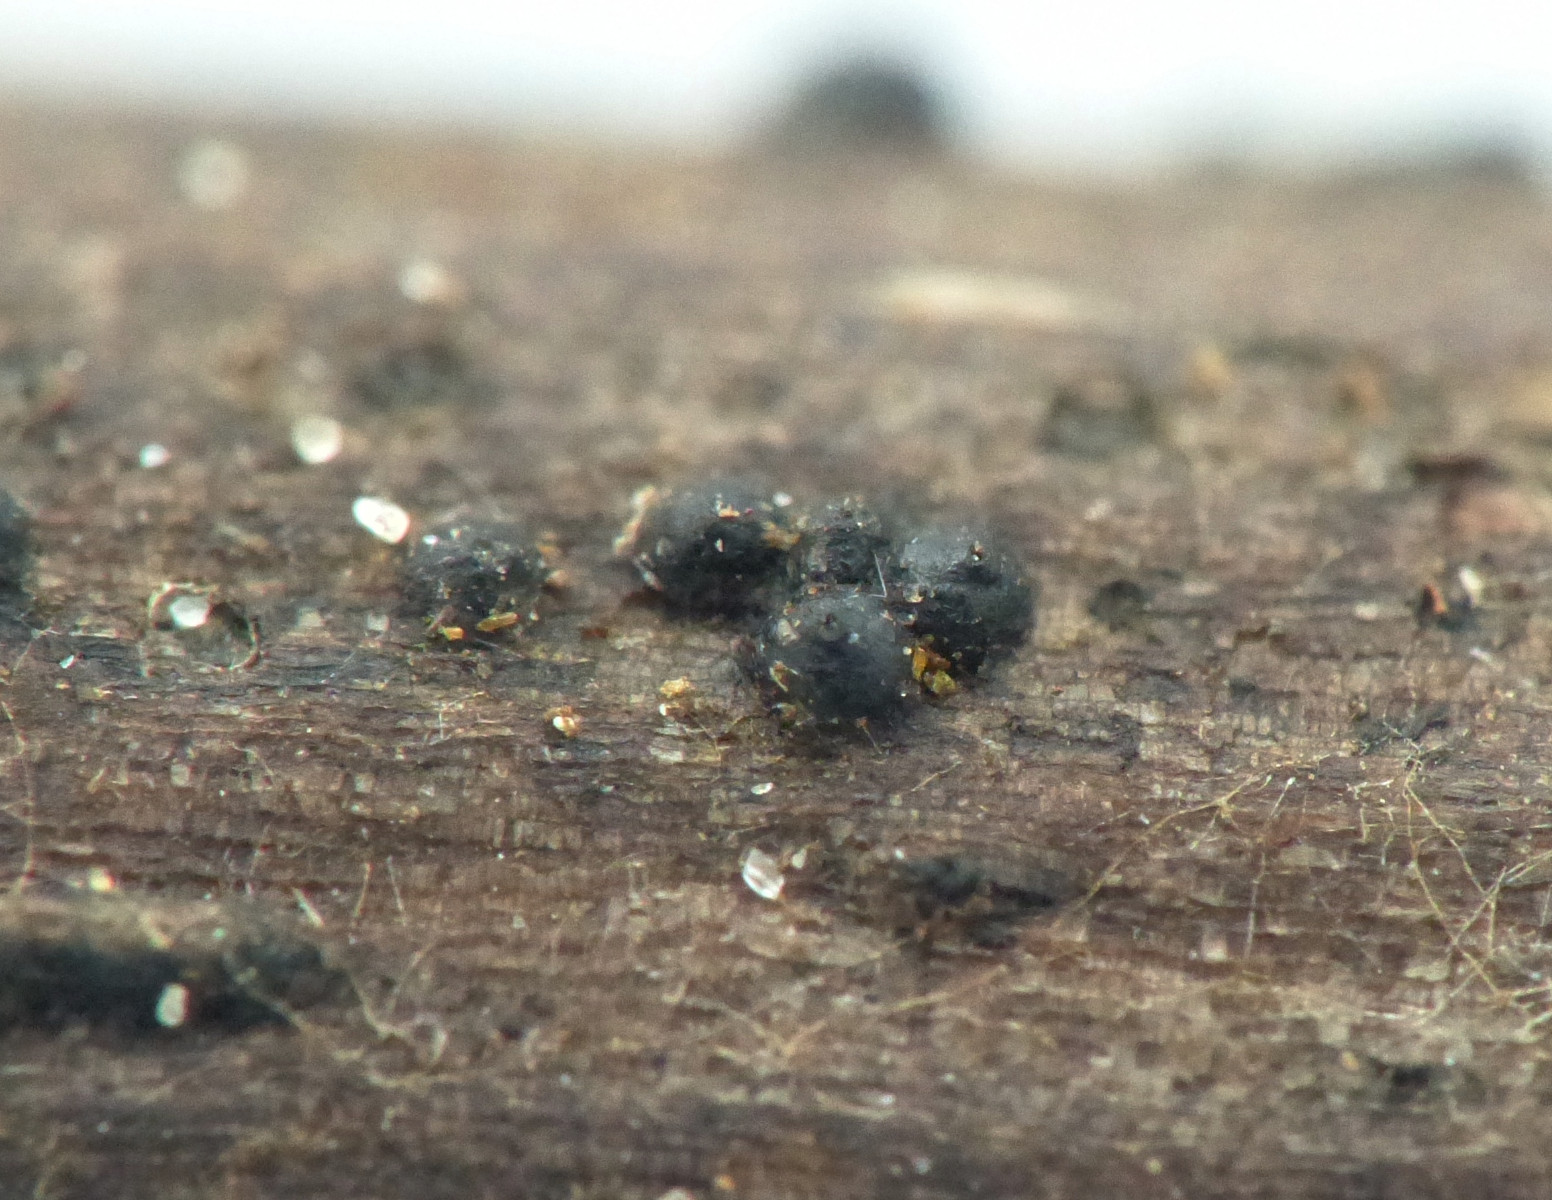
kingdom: Fungi
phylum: Ascomycota
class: Dothideomycetes
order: Pleosporales
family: Phaeosphaeriaceae
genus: Phaeosphaeria
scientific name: Phaeosphaeria sowerbyi
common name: kål-kulkegle
